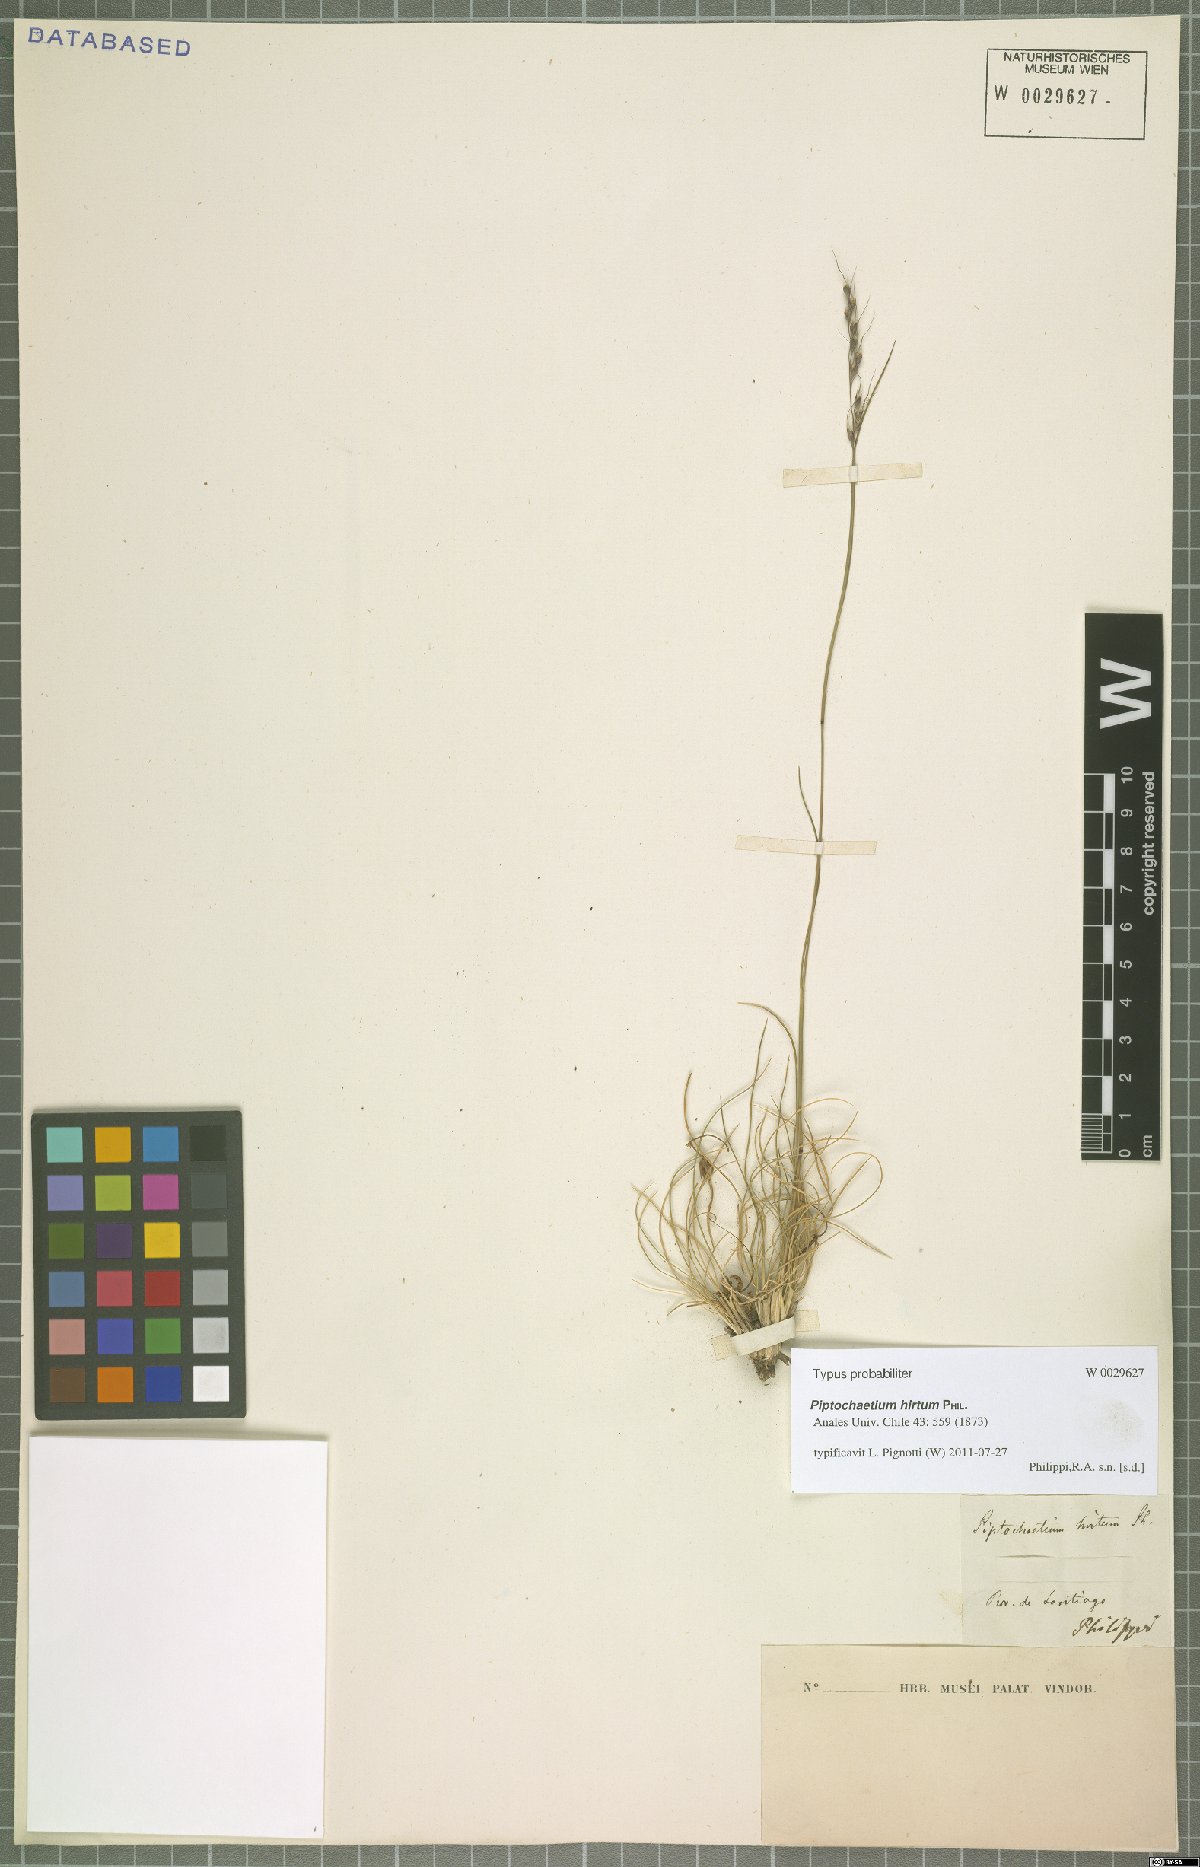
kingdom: Plantae
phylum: Tracheophyta
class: Liliopsida
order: Poales
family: Poaceae
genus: Piptochaetium
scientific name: Piptochaetium hirtum
